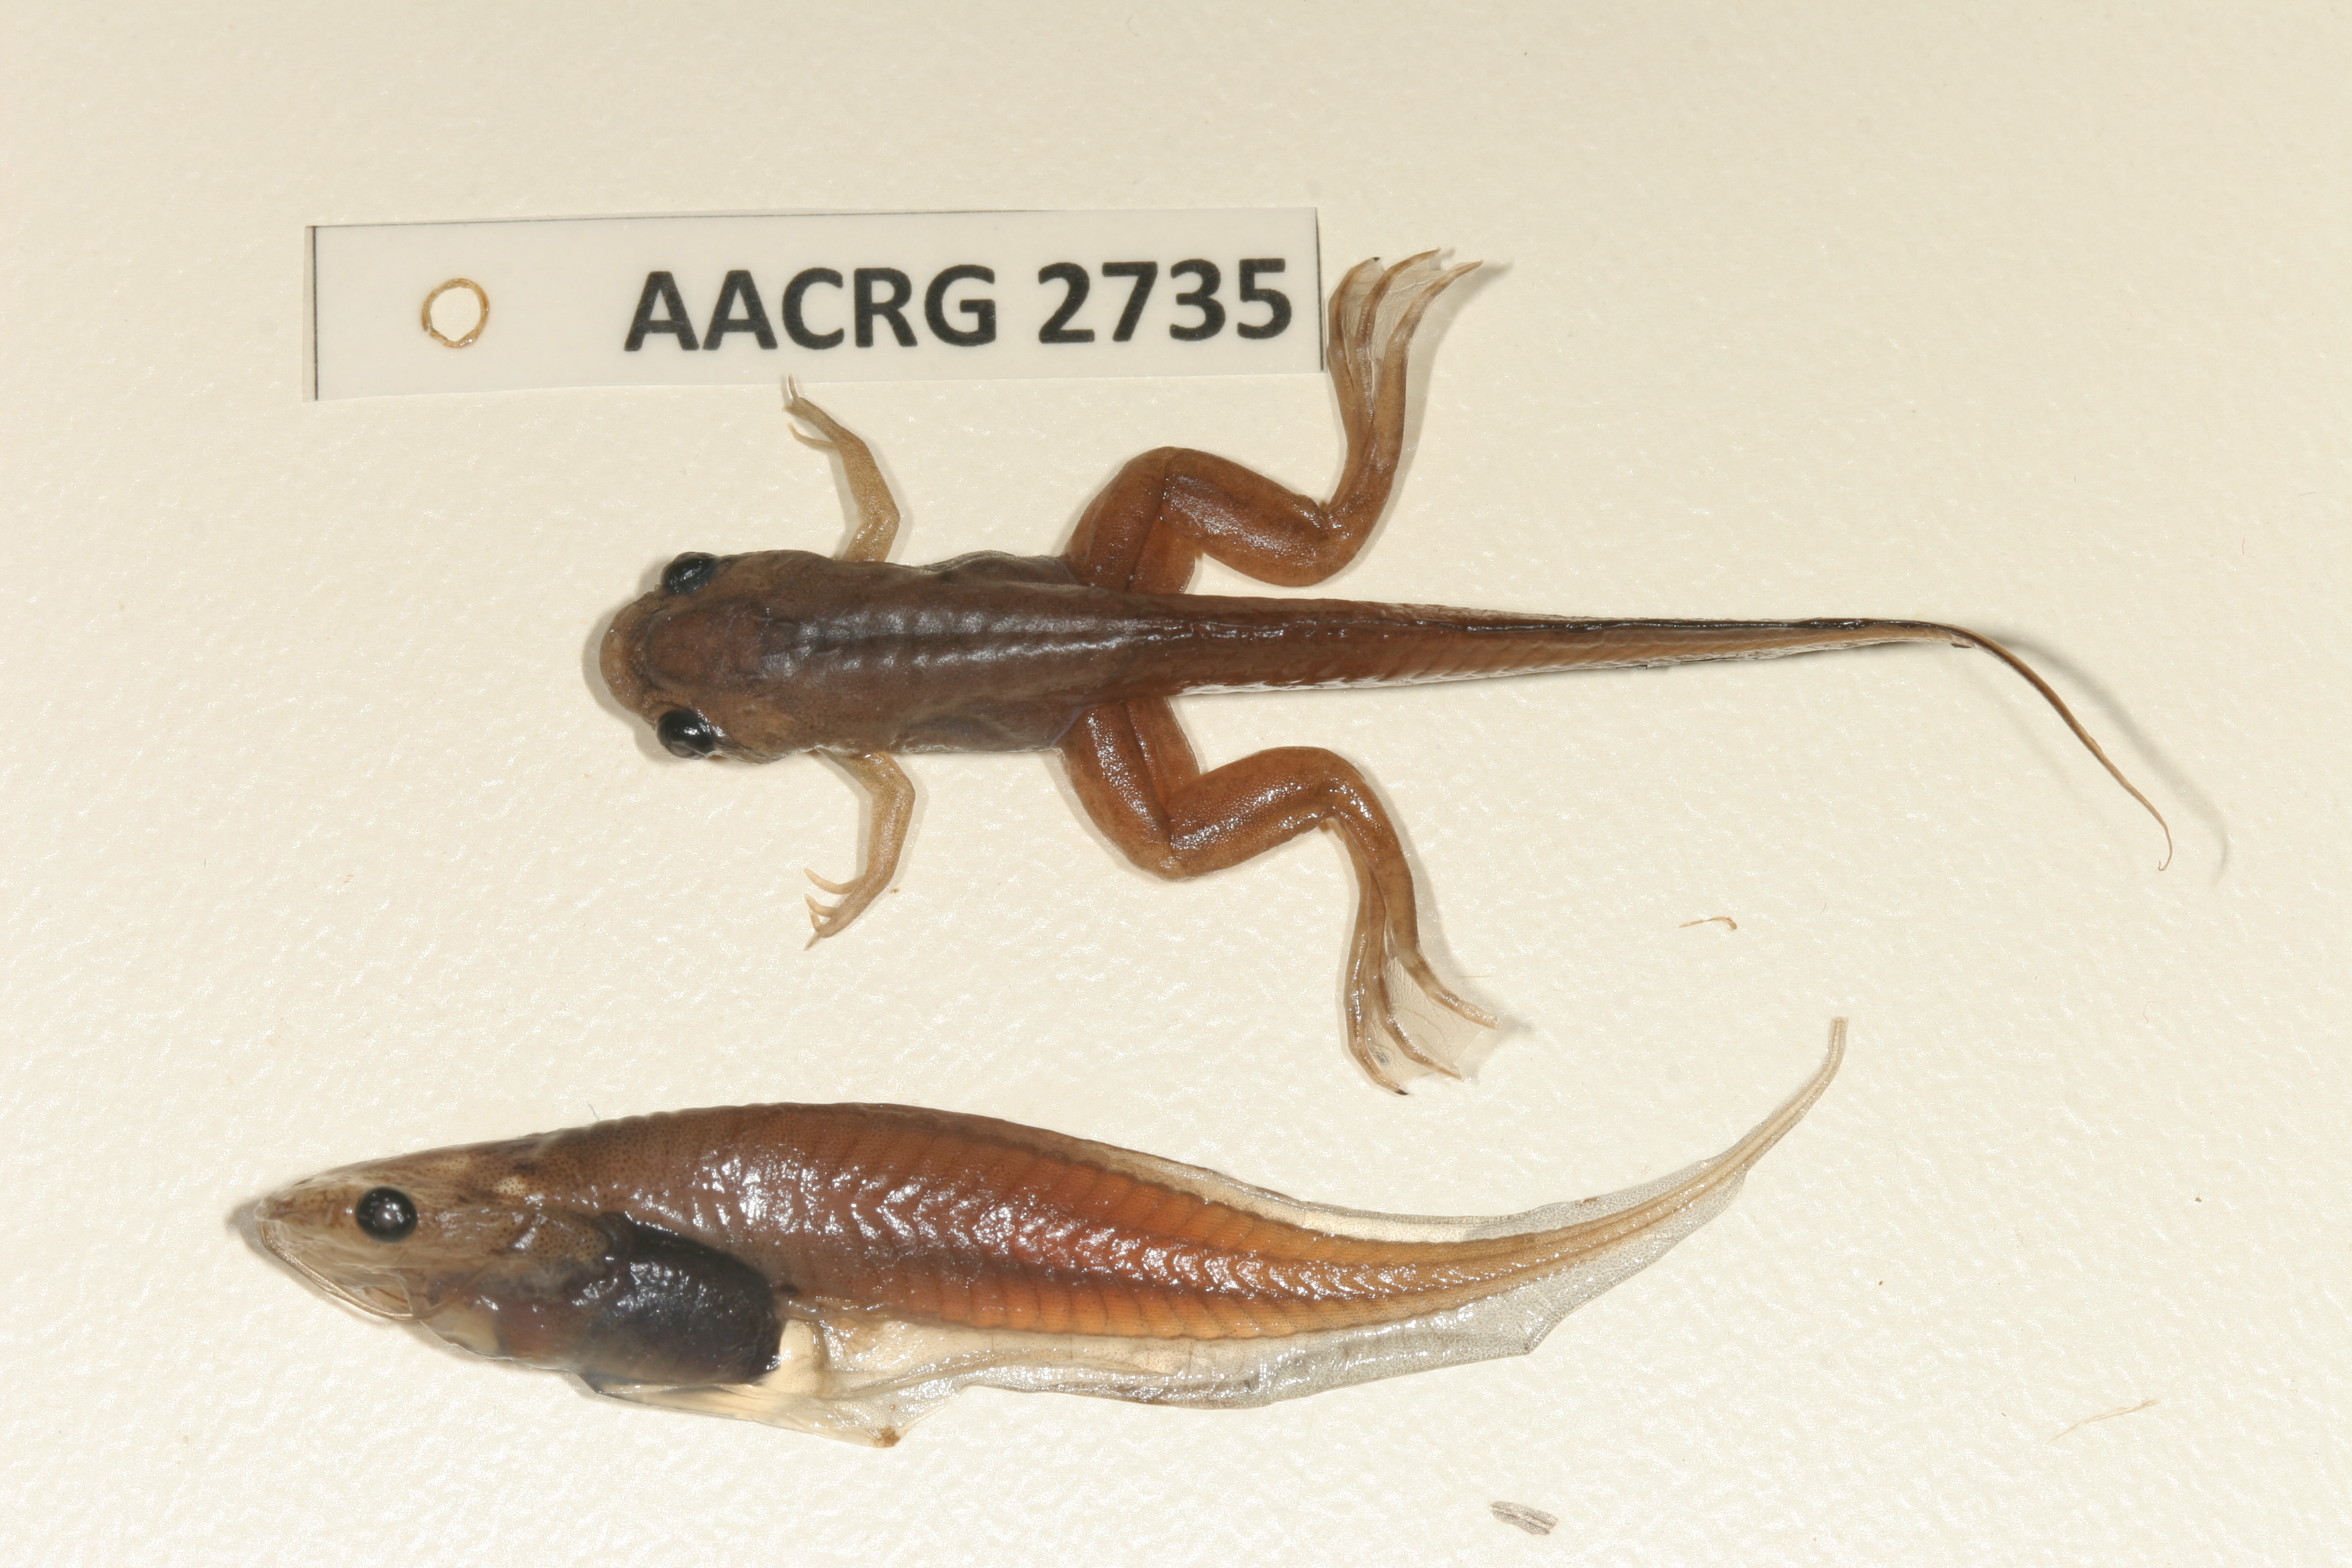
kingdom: Animalia
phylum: Chordata
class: Amphibia
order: Anura
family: Pipidae
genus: Xenopus
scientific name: Xenopus muelleri
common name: Muller's clawed frog
